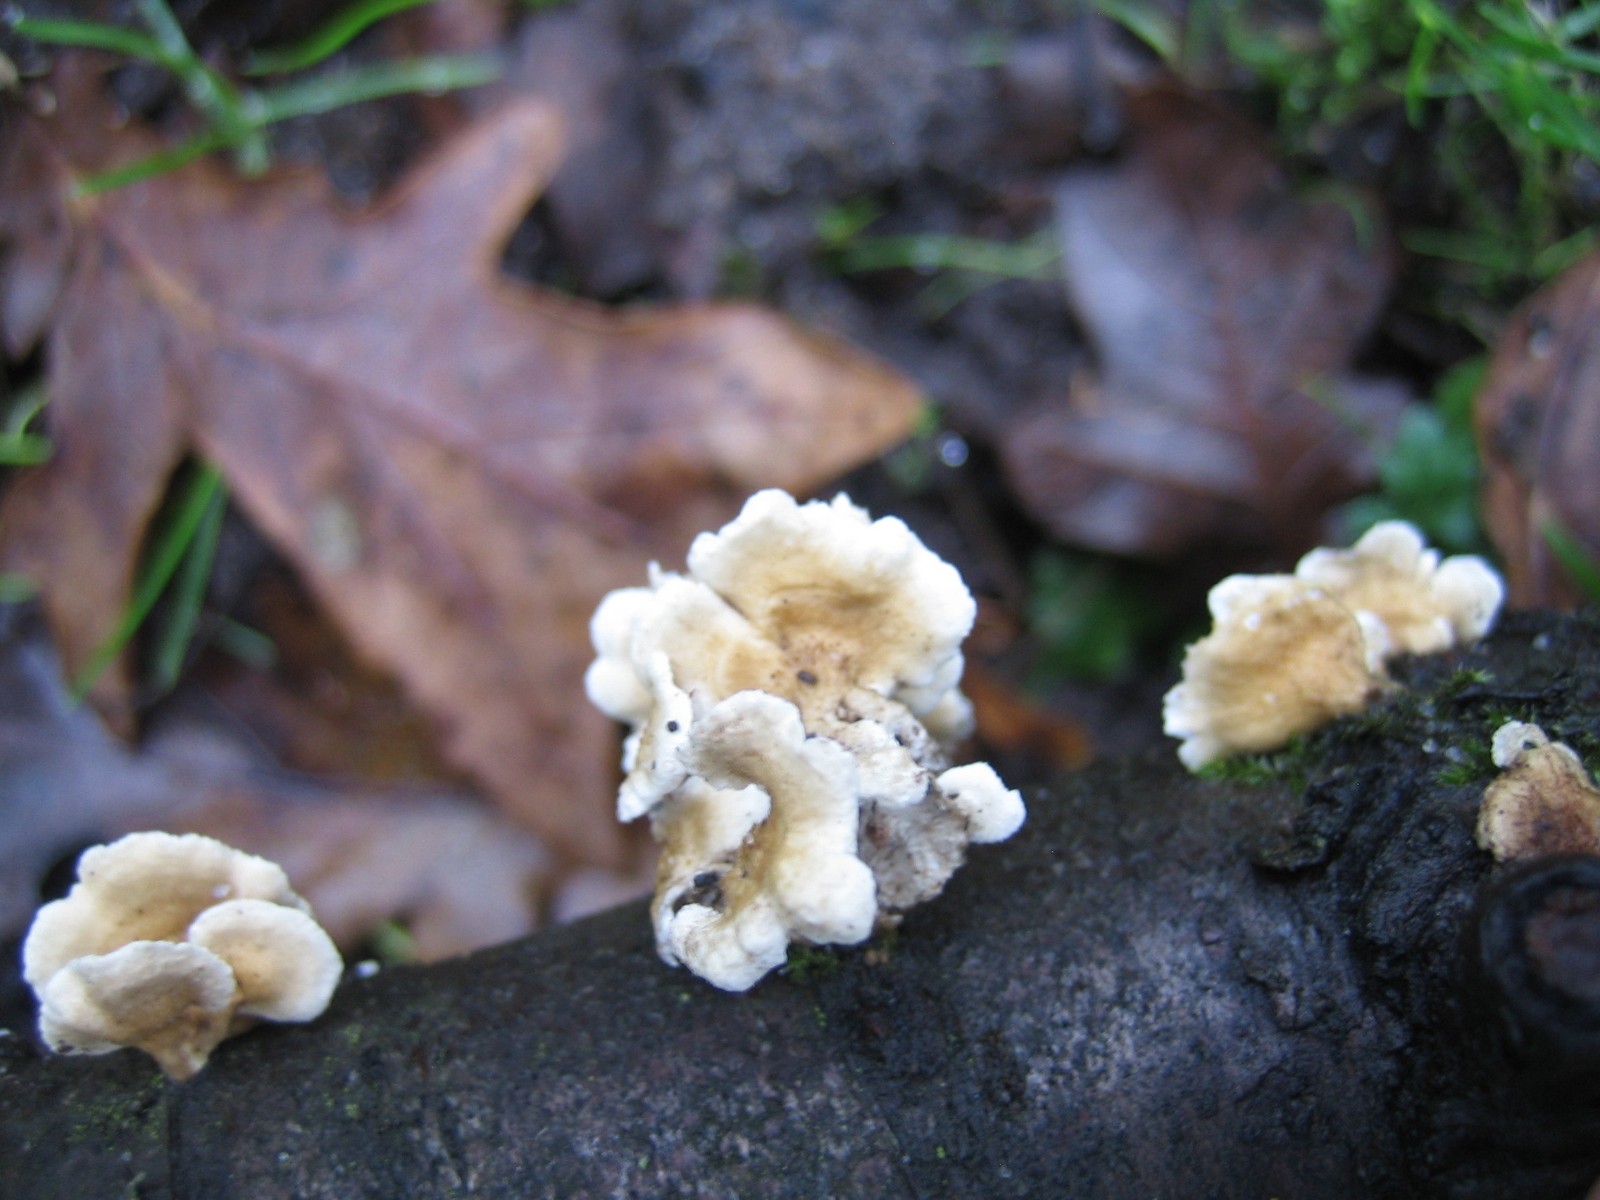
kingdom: Fungi
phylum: Basidiomycota
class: Agaricomycetes
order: Amylocorticiales
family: Amylocorticiaceae
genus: Plicaturopsis
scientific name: Plicaturopsis crispa
